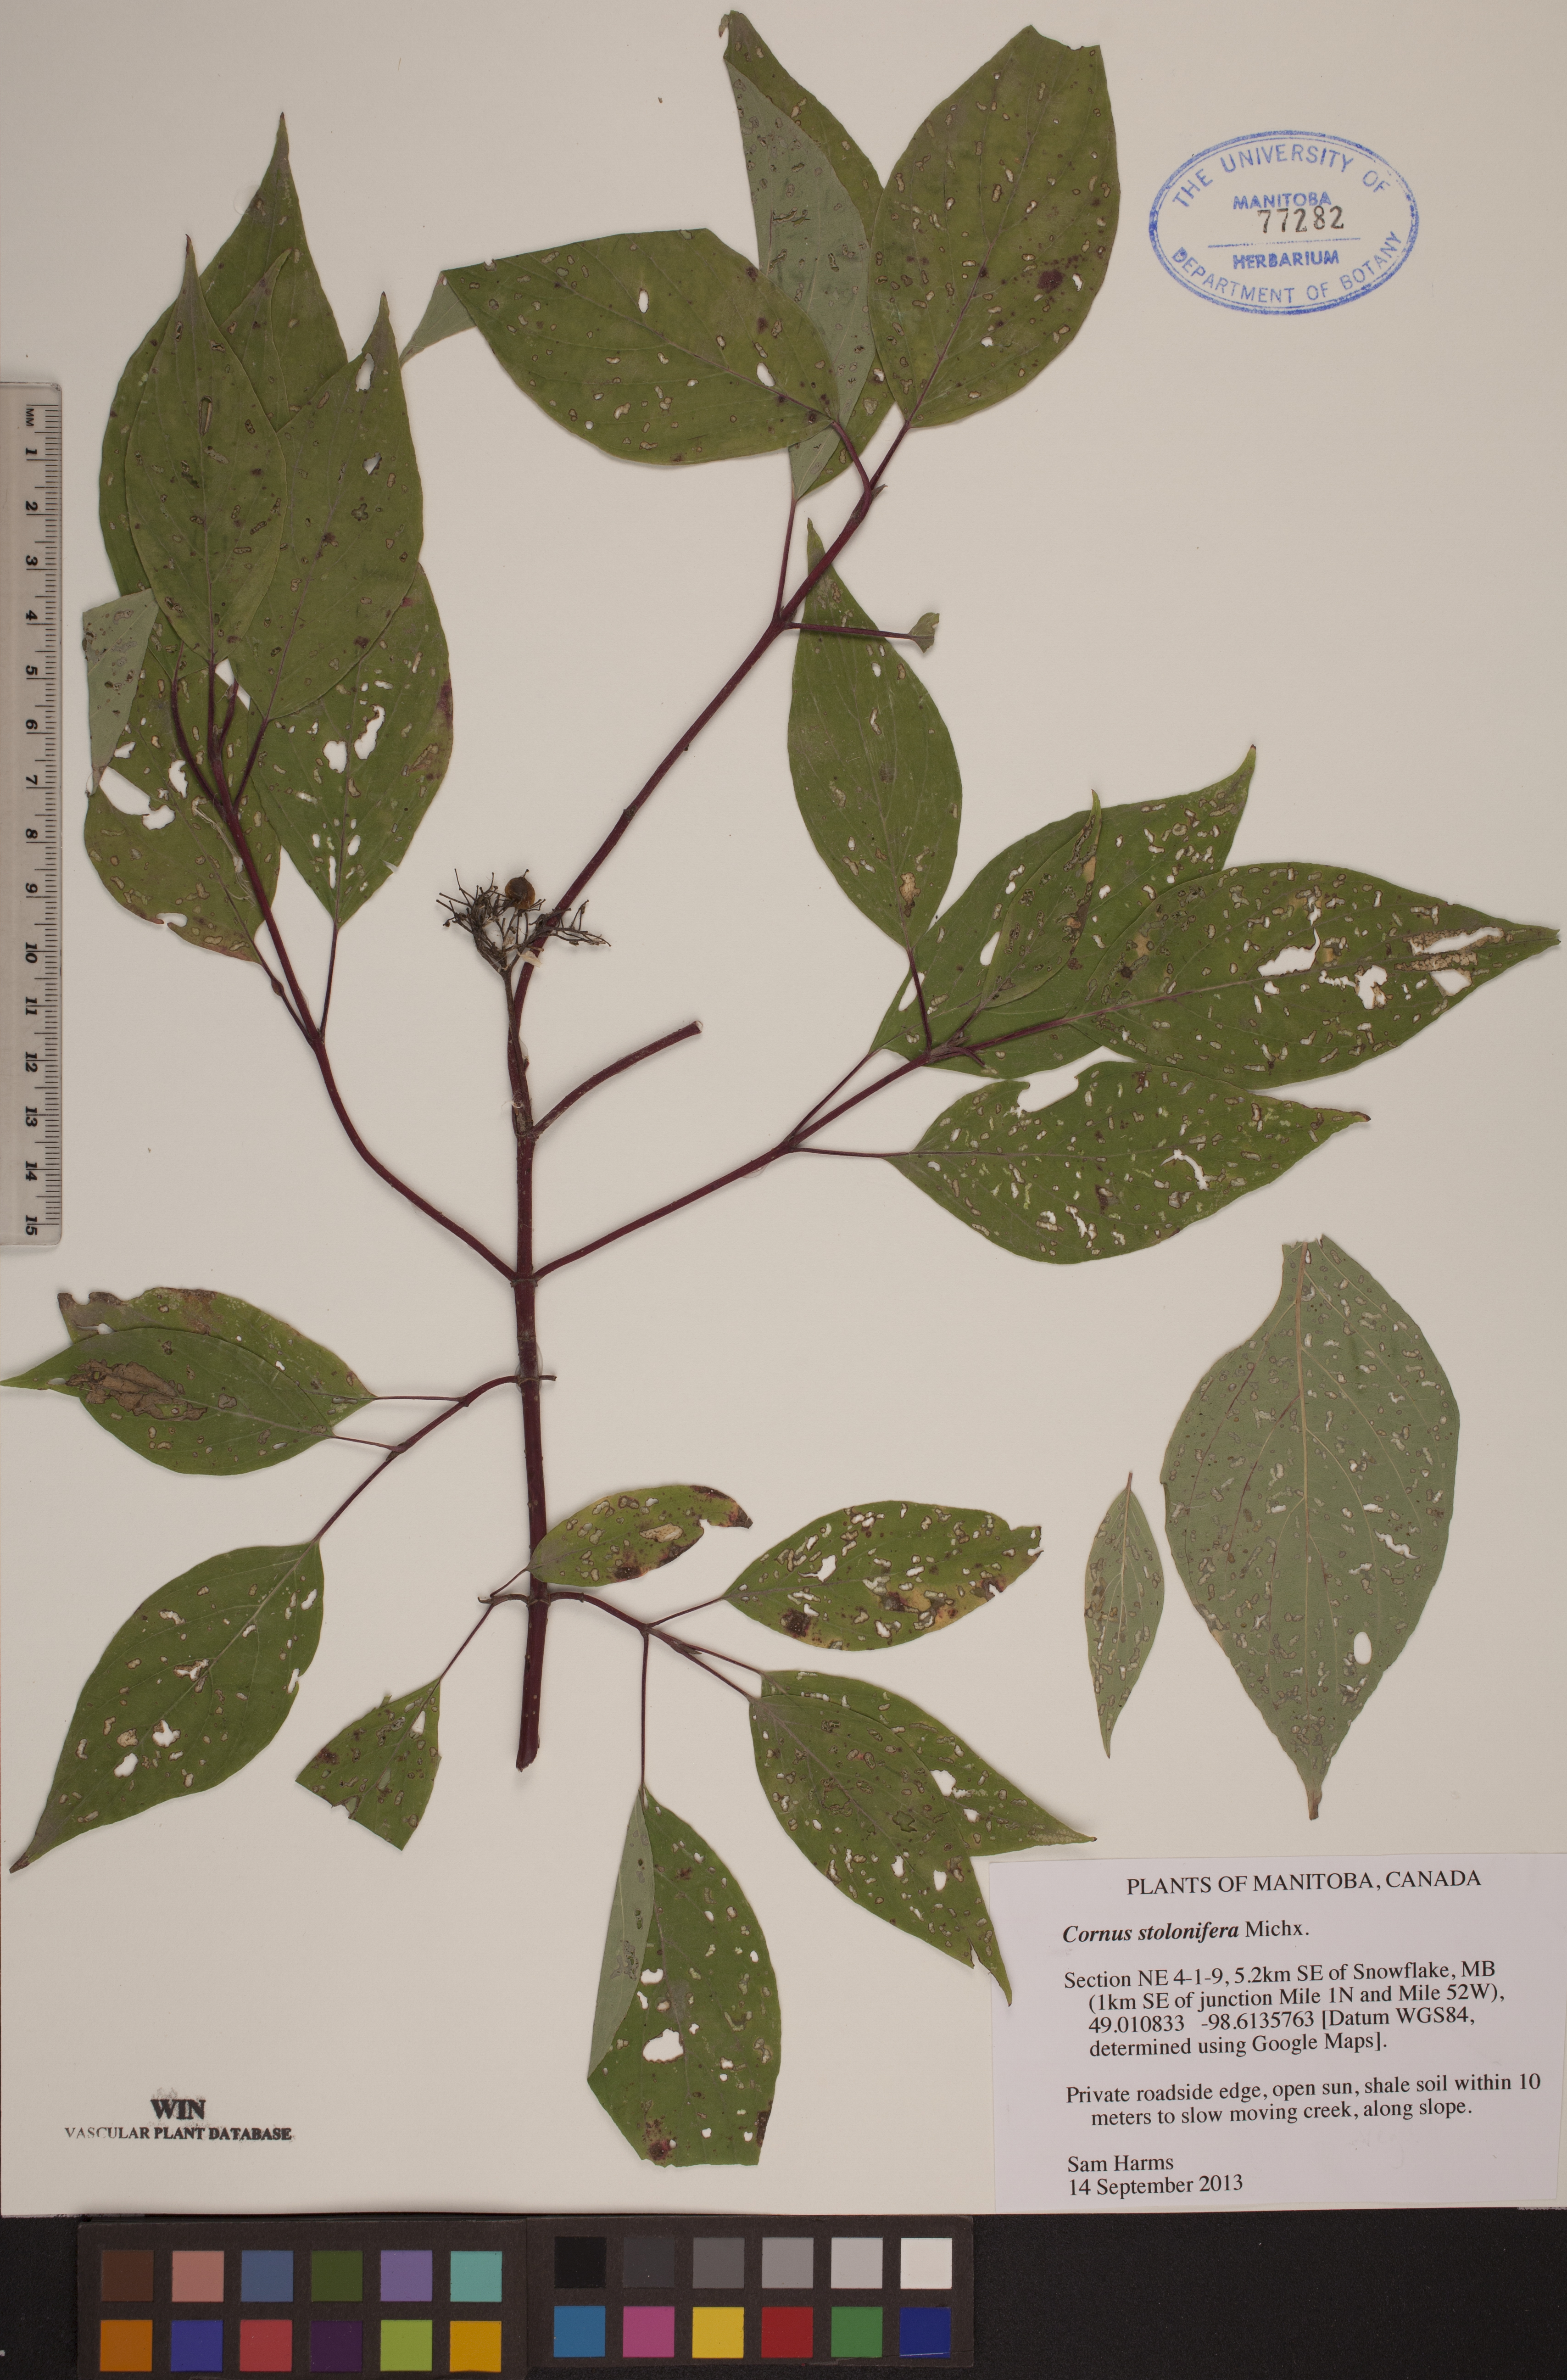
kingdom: Plantae
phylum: Tracheophyta
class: Magnoliopsida
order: Cornales
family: Cornaceae
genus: Cornus
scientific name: Cornus sericea
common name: Red-osier dogwood
